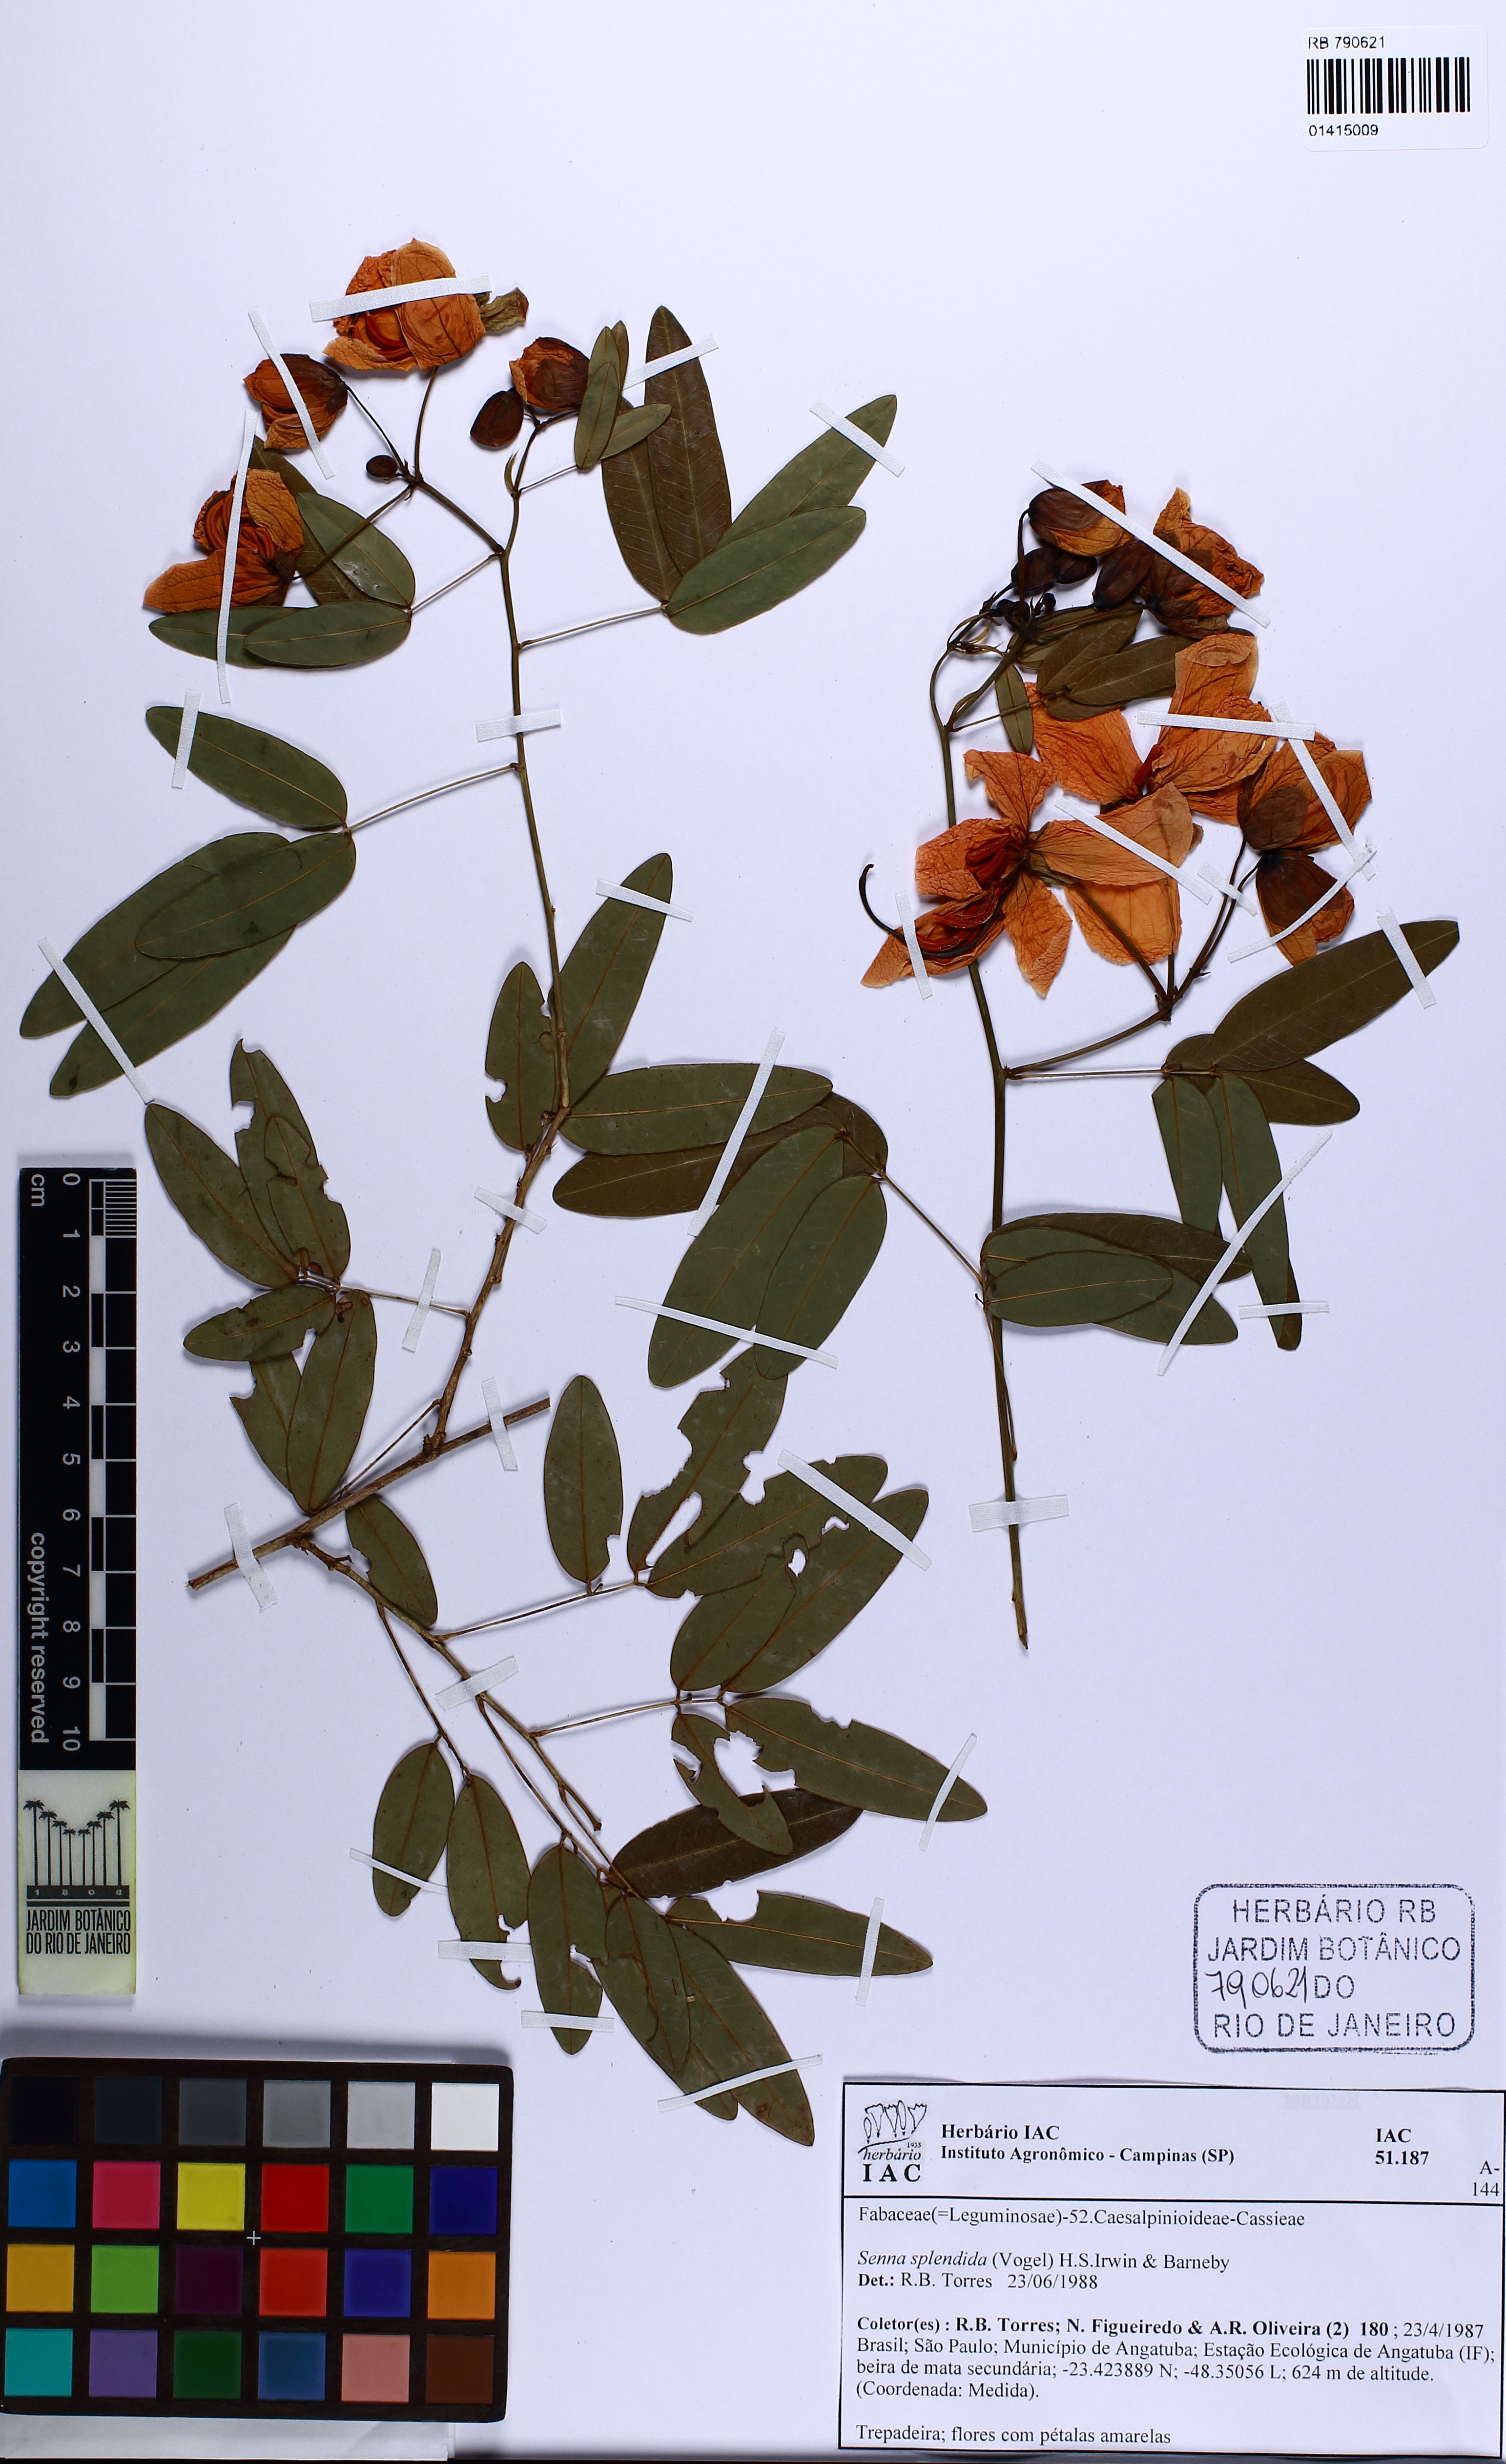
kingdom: Plantae
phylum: Tracheophyta
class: Magnoliopsida
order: Fabales
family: Fabaceae
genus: Senna
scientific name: Senna splendida
